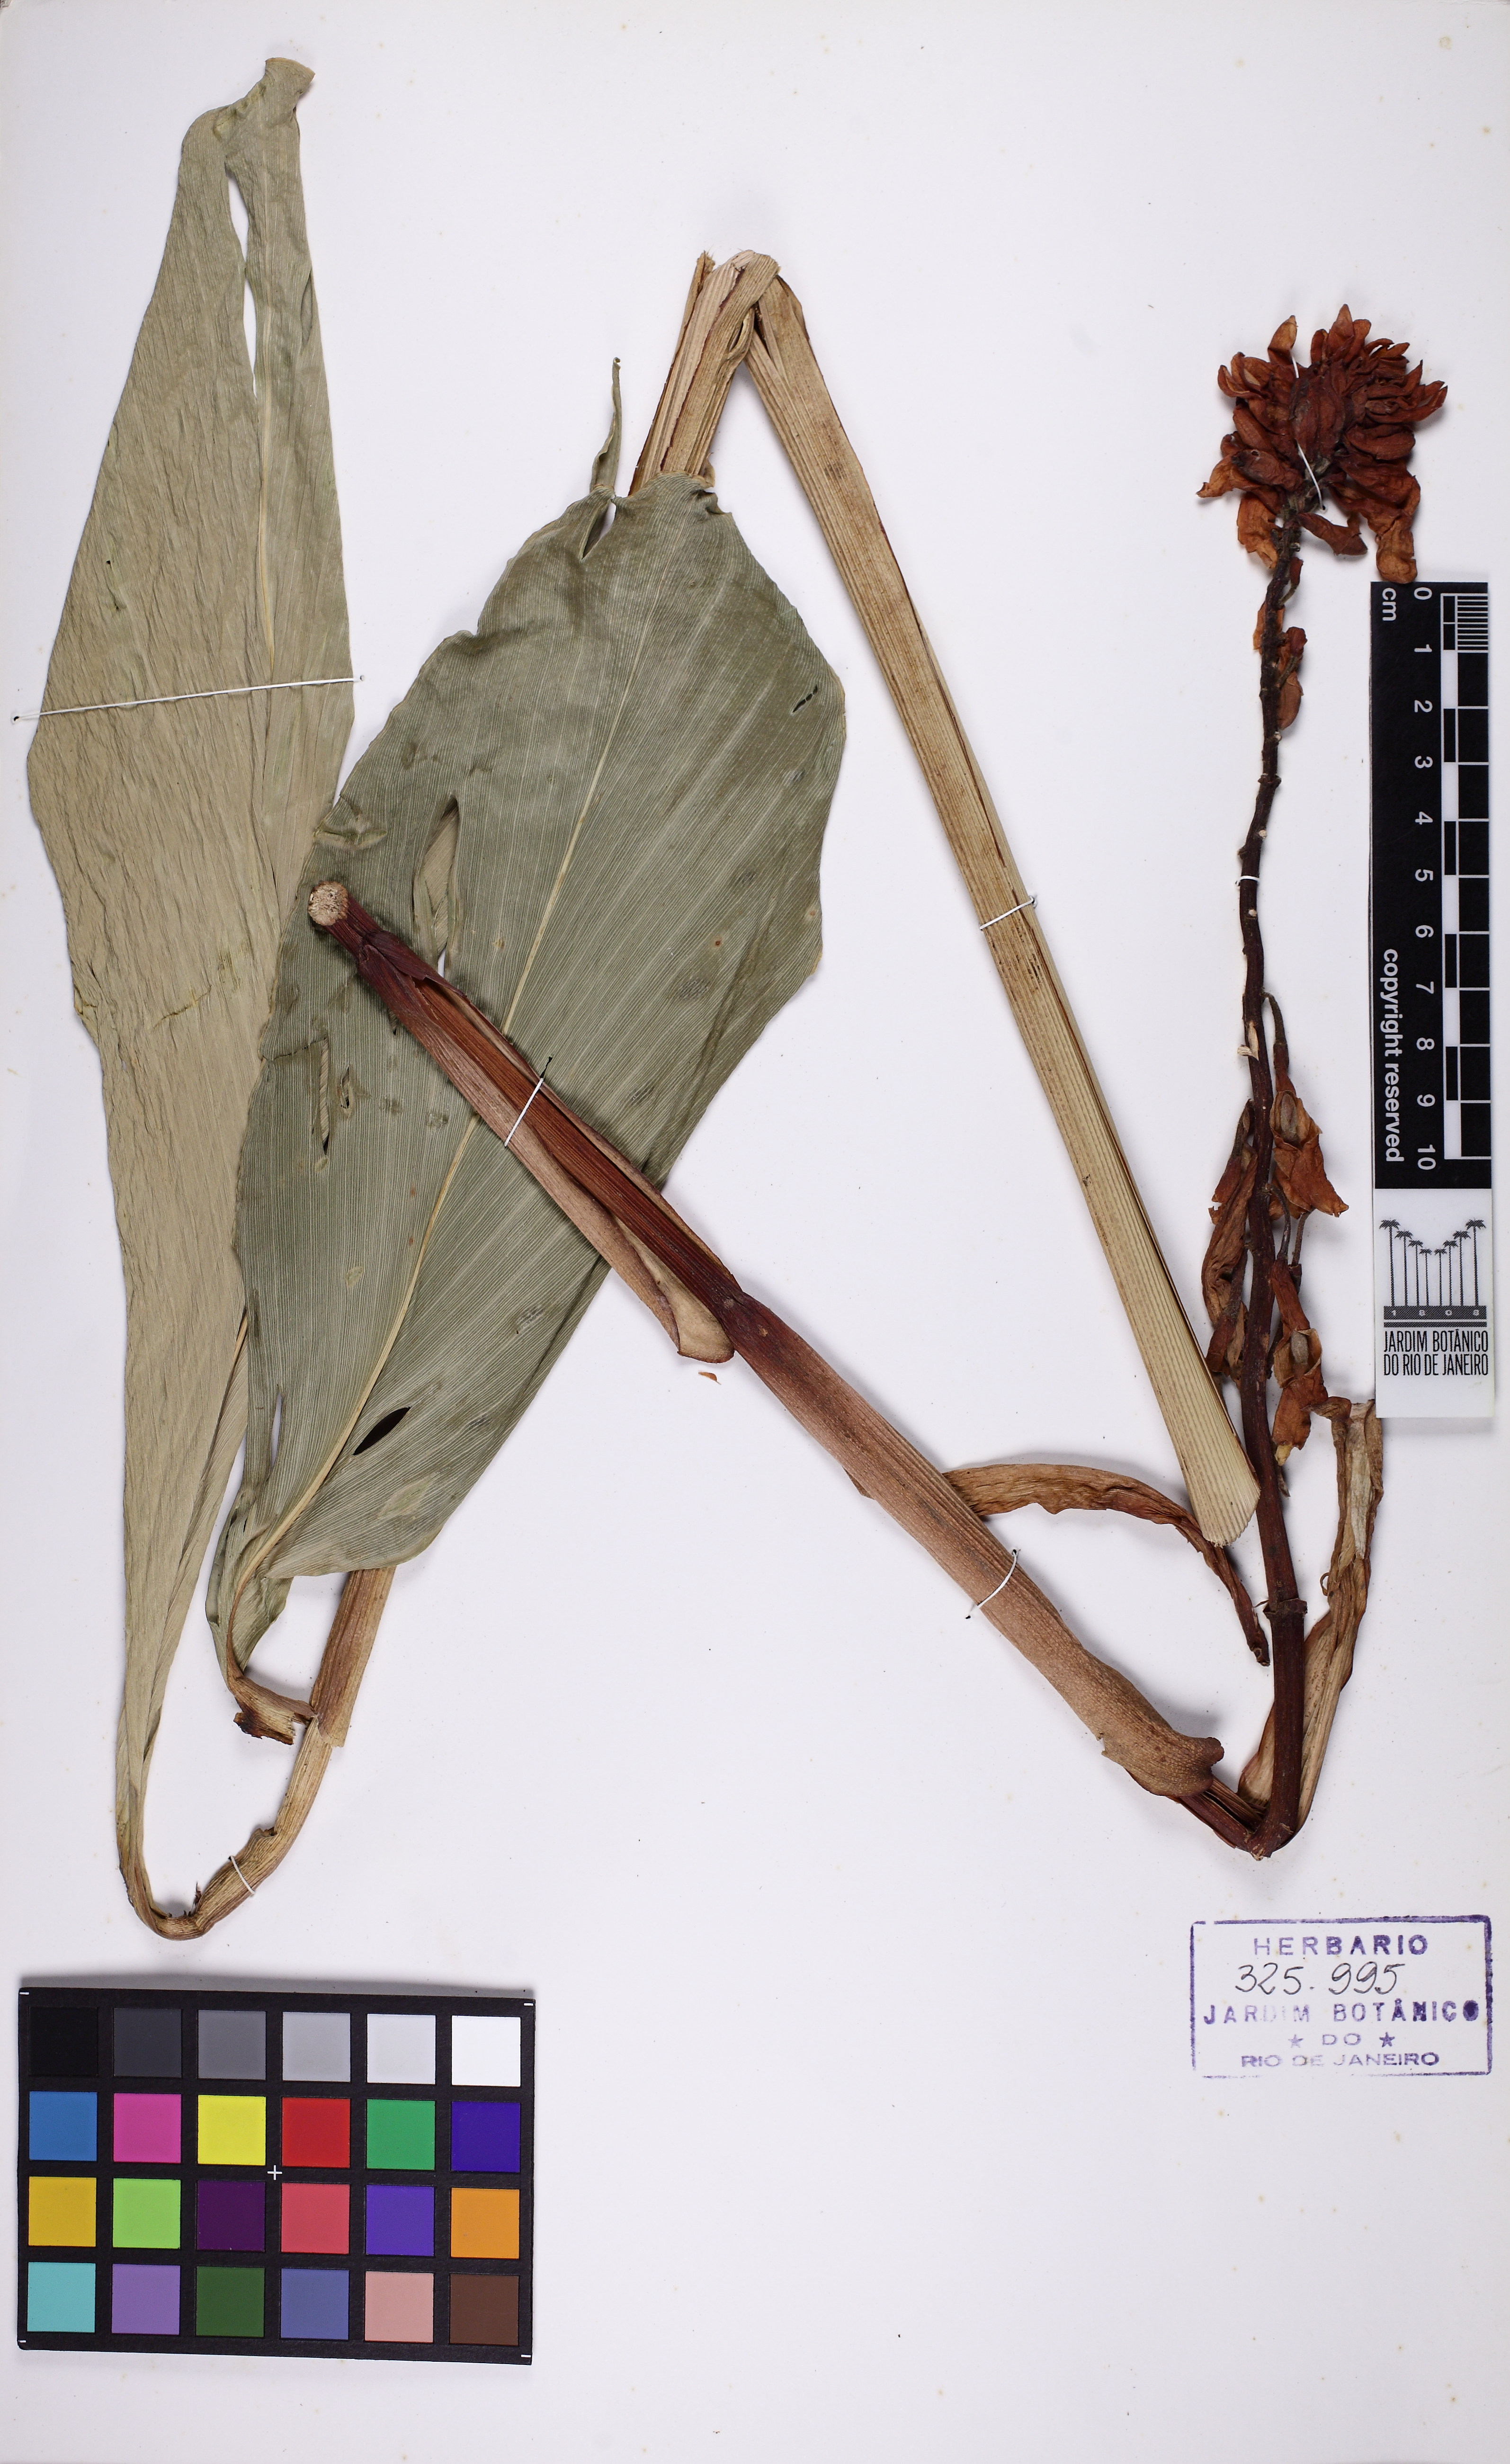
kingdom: Plantae
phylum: Tracheophyta
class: Liliopsida
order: Zingiberales
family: Zingiberaceae
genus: Renealmia
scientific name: Renealmia chrysotricha
